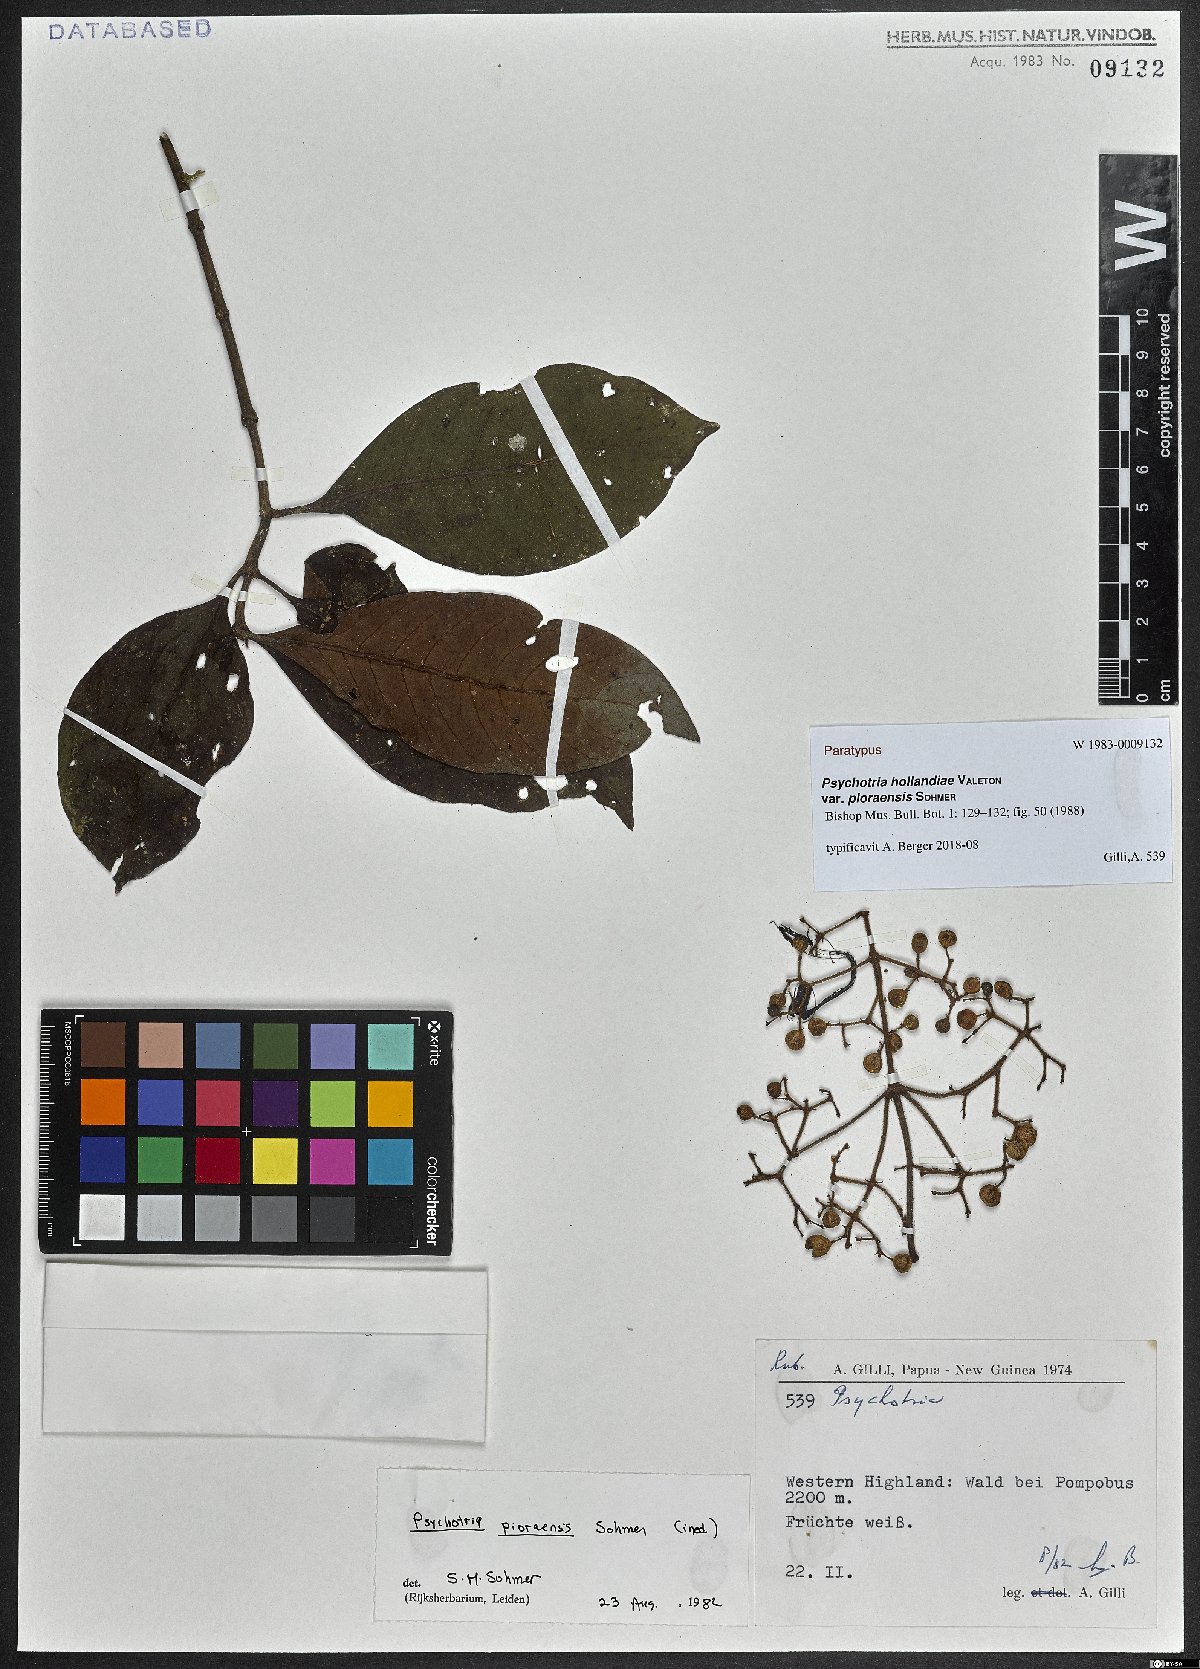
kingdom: Plantae
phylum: Tracheophyta
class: Magnoliopsida
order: Gentianales
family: Rubiaceae
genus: Psychotria
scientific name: Psychotria hollandiae
